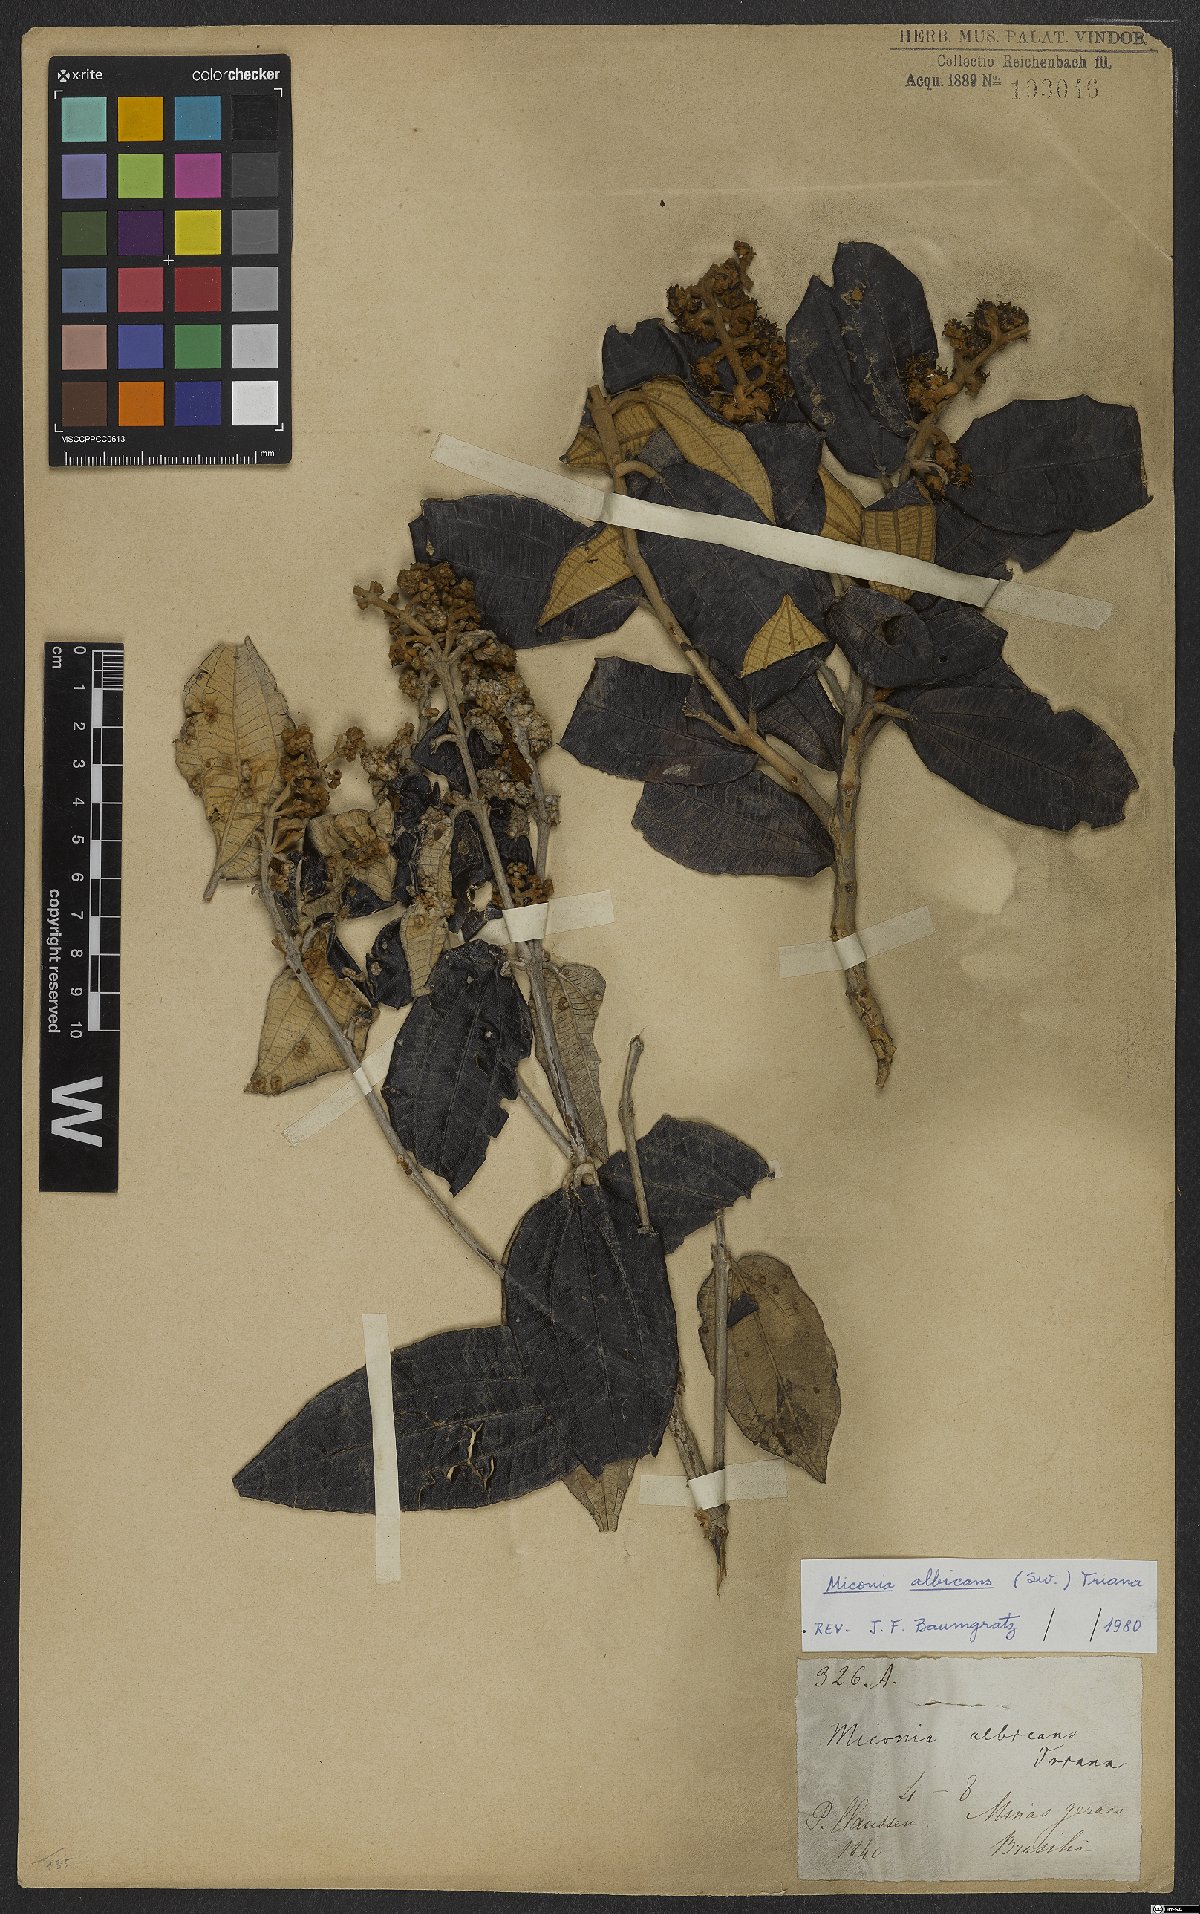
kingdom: Plantae
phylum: Tracheophyta
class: Magnoliopsida
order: Myrtales
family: Melastomataceae
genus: Miconia
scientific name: Miconia albicans
